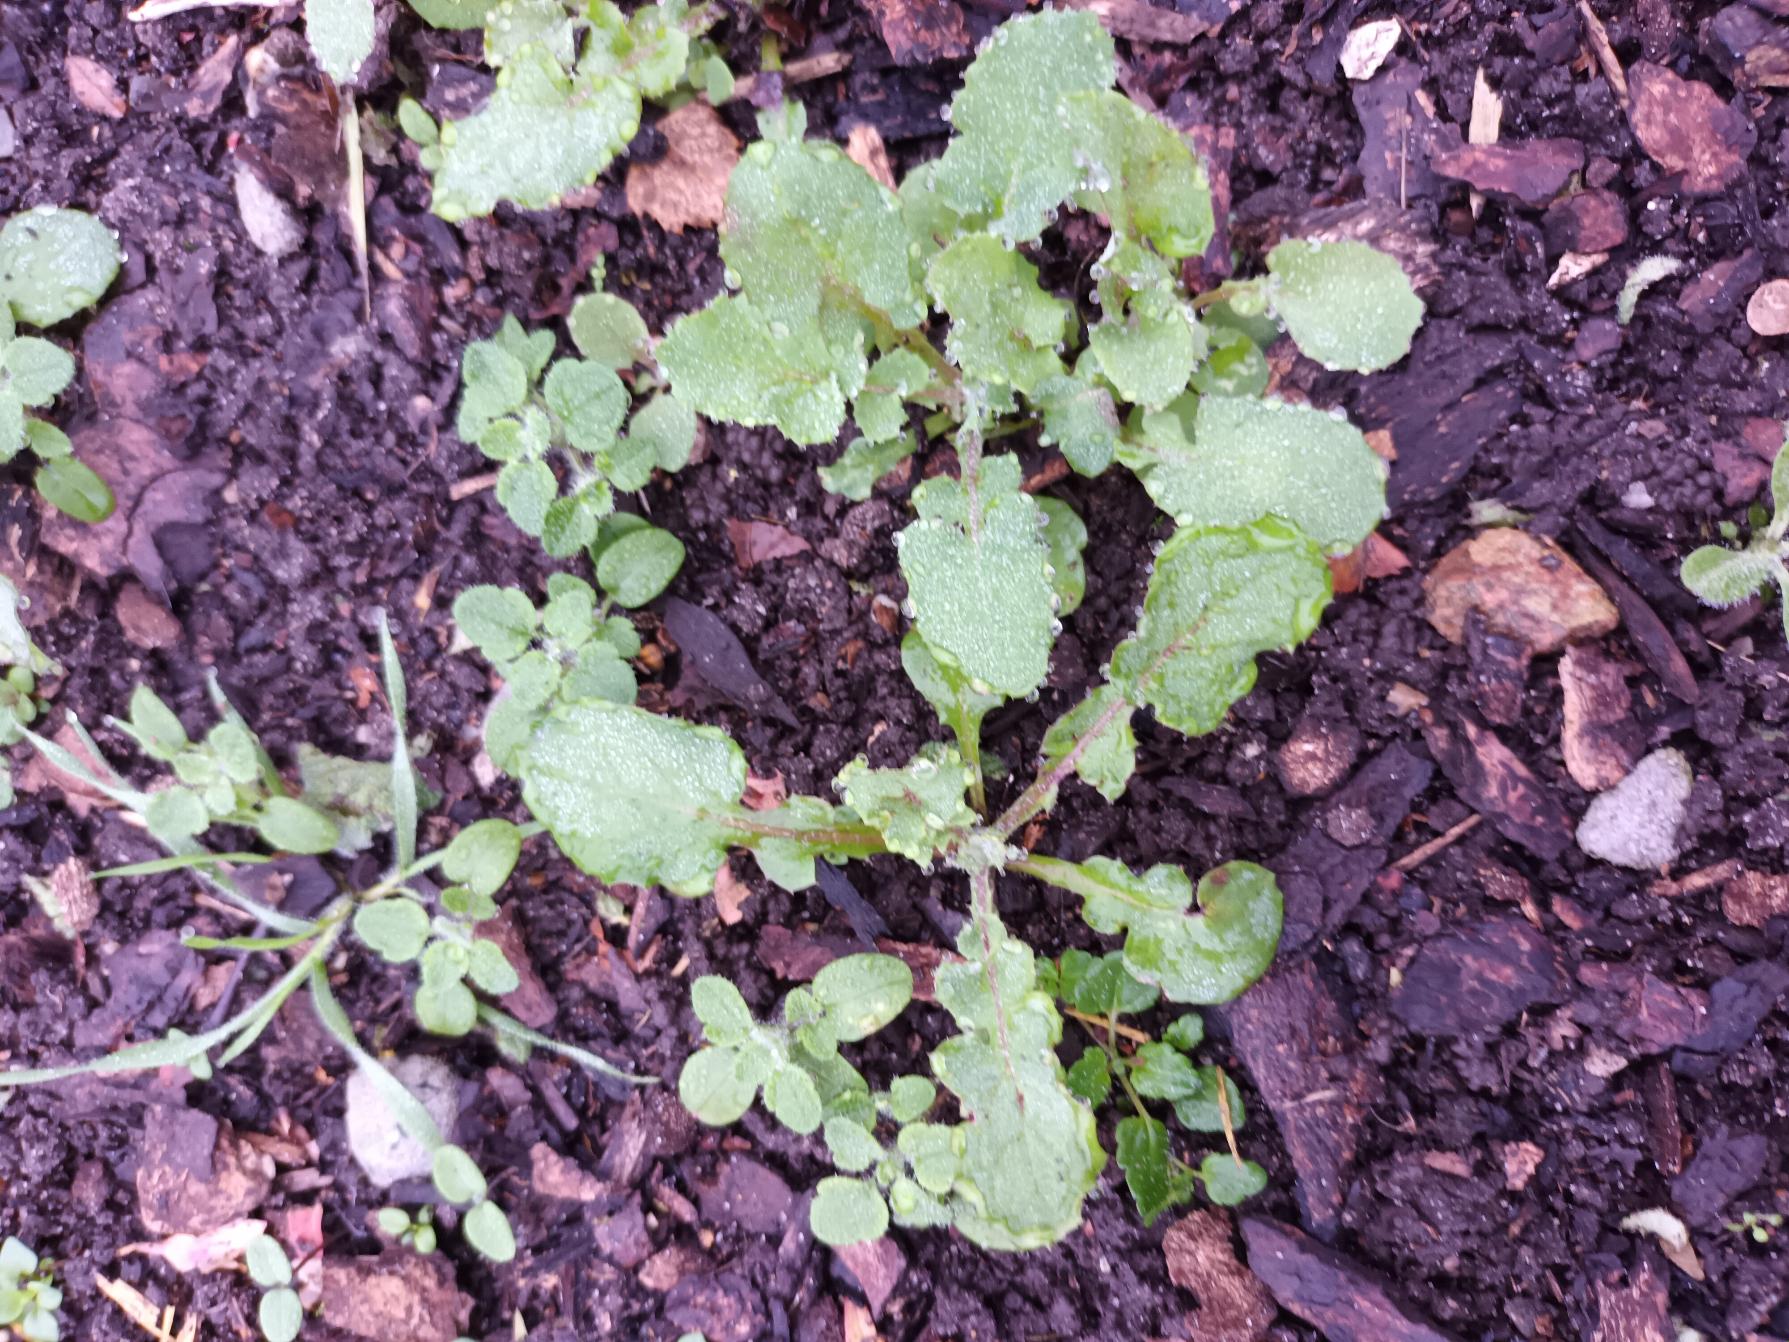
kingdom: Plantae
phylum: Tracheophyta
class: Magnoliopsida
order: Asterales
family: Asteraceae
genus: Sonchus
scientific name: Sonchus oleraceus
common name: Almindelig svinemælk
